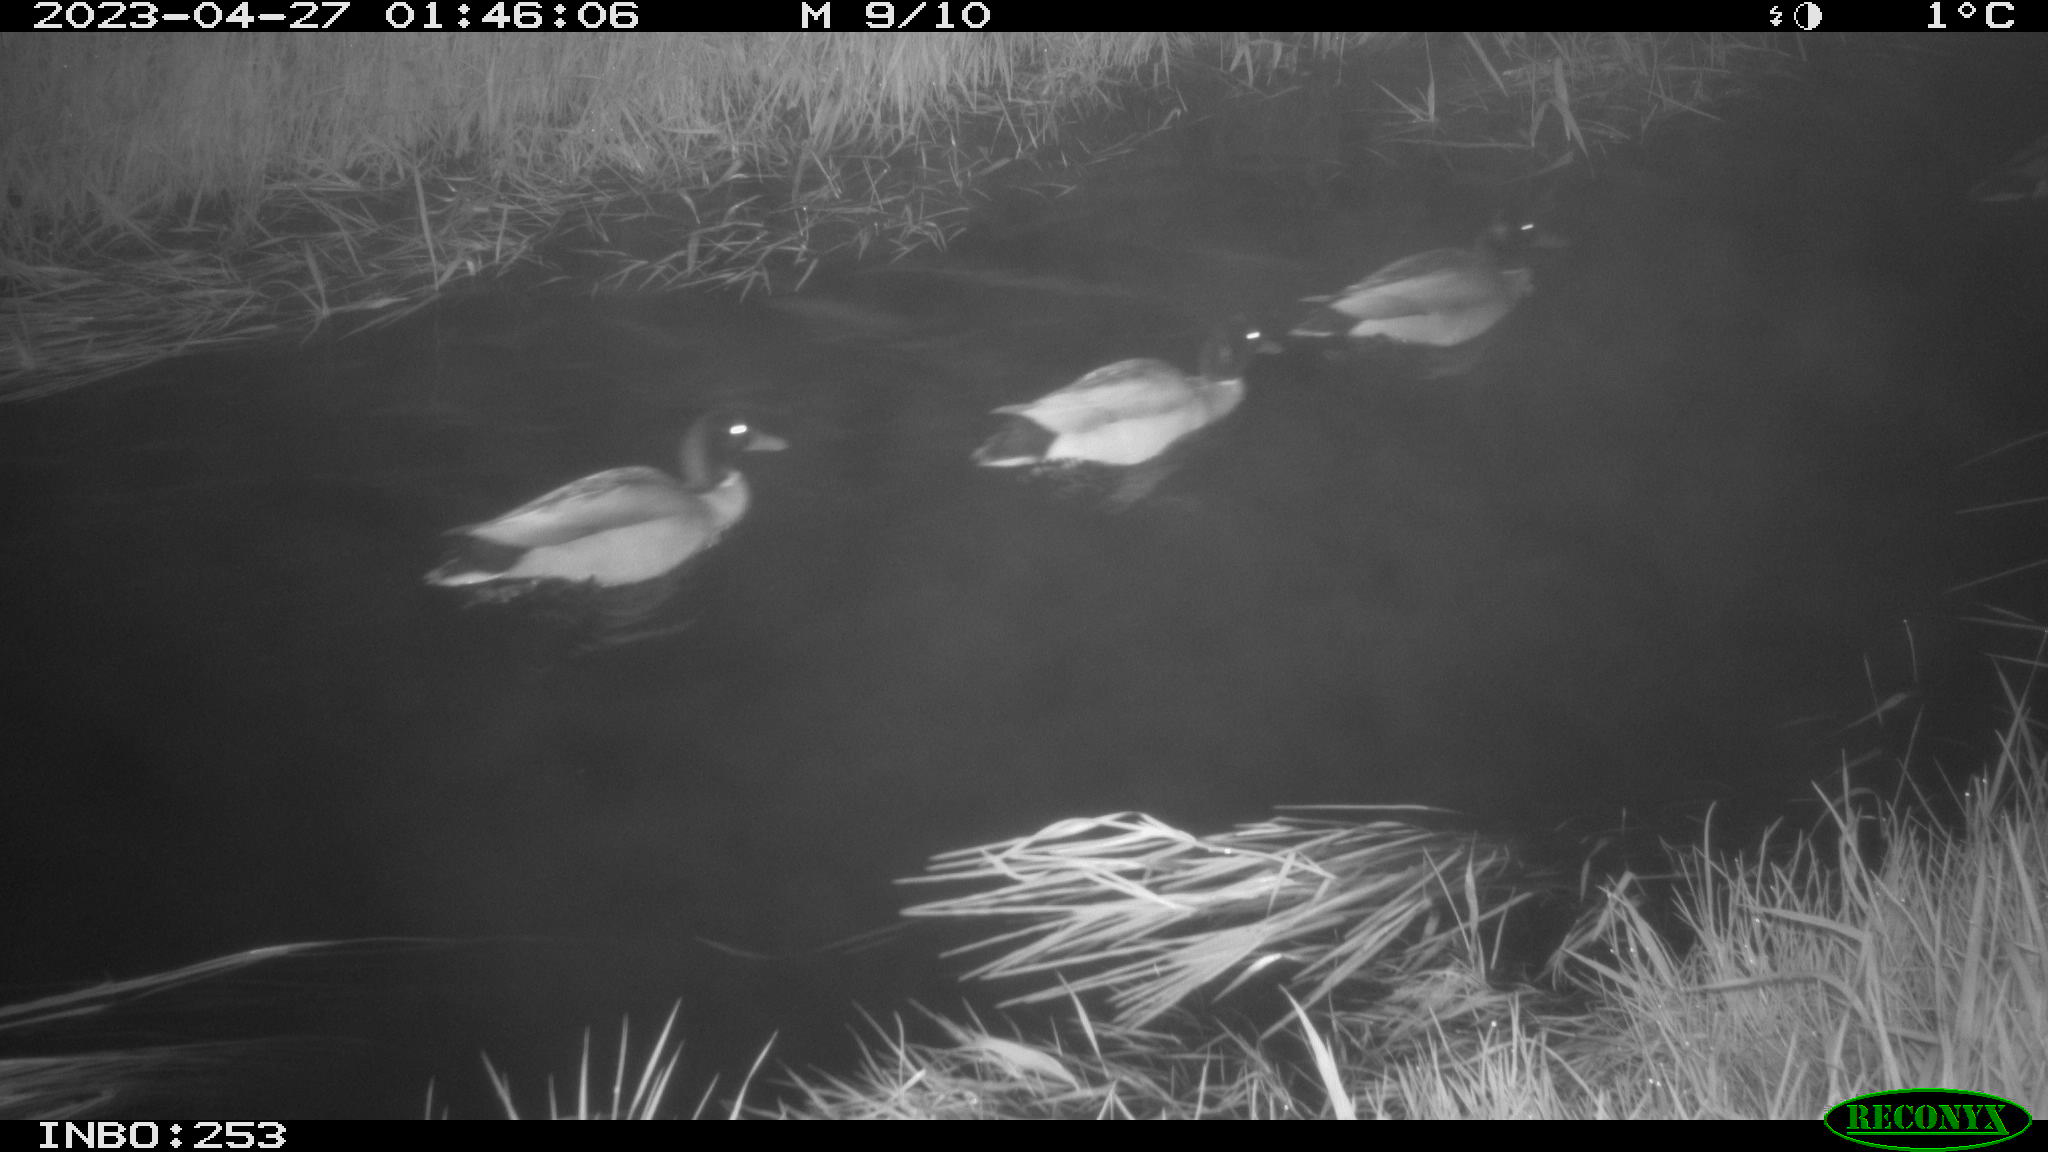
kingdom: Animalia
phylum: Chordata
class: Aves
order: Anseriformes
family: Anatidae
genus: Anas
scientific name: Anas
